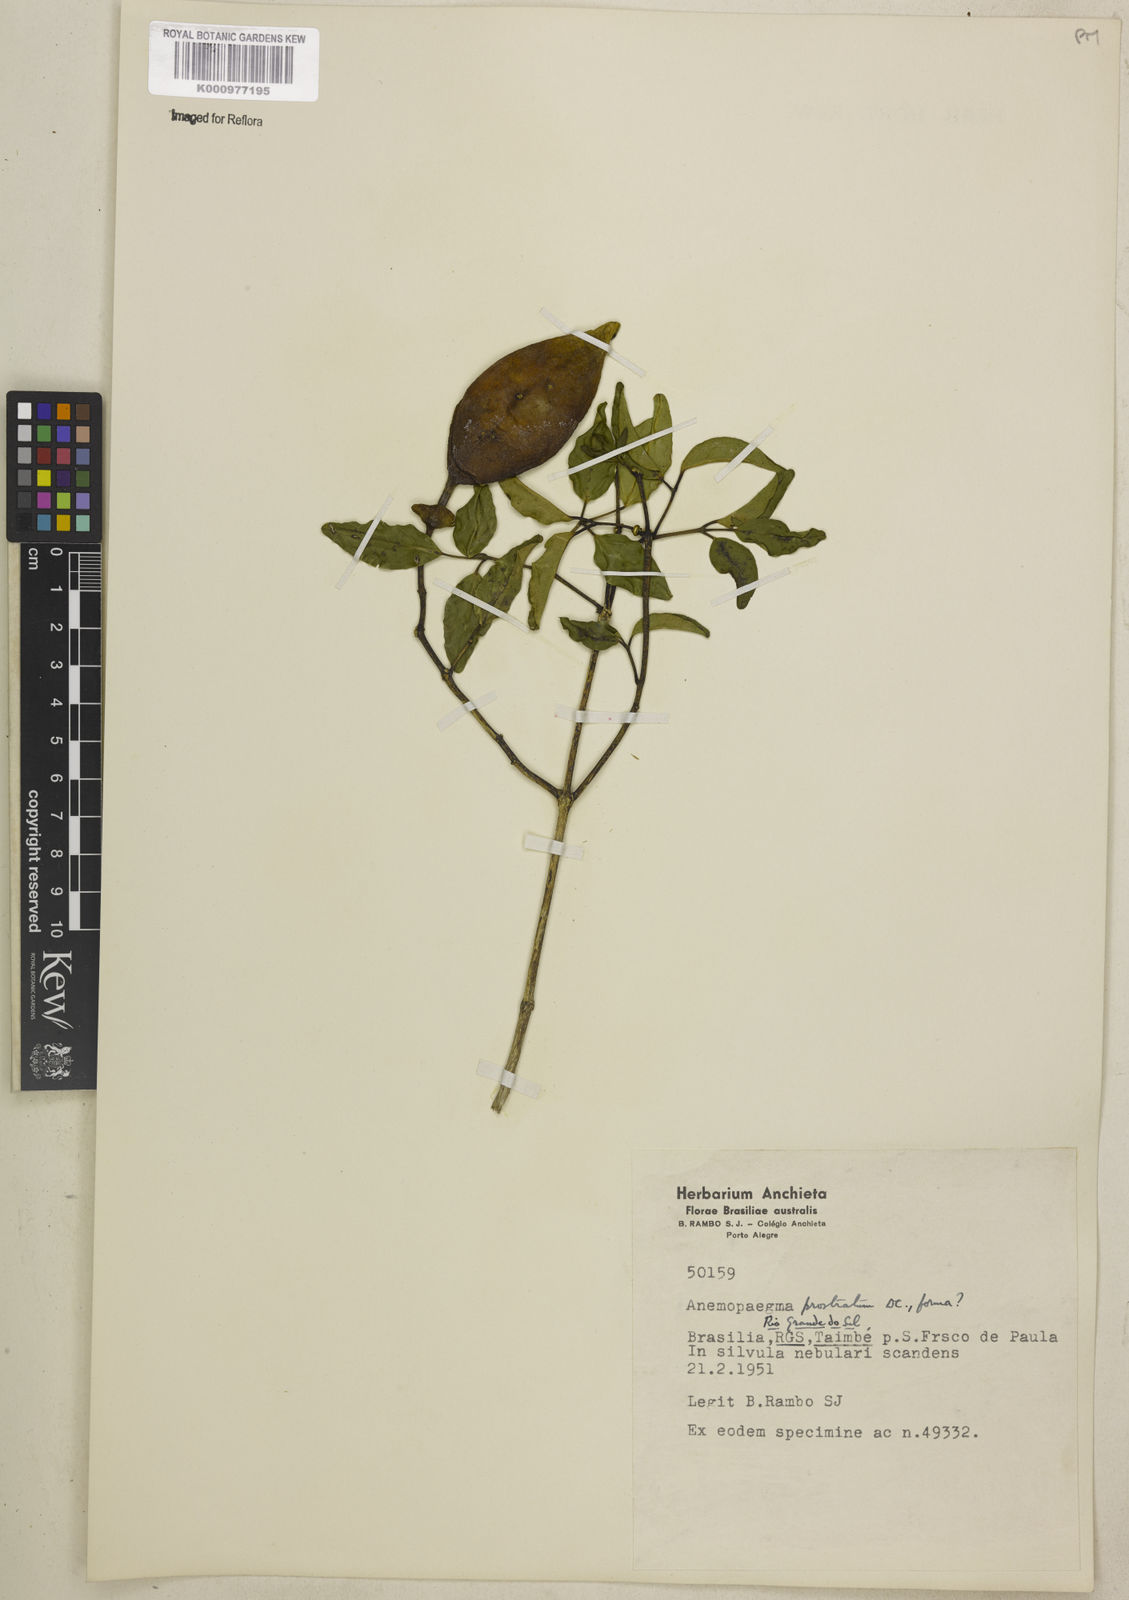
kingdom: Plantae
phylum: Tracheophyta
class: Magnoliopsida
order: Lamiales
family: Bignoniaceae
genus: Anemopaegma
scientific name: Anemopaegma nebulosum
